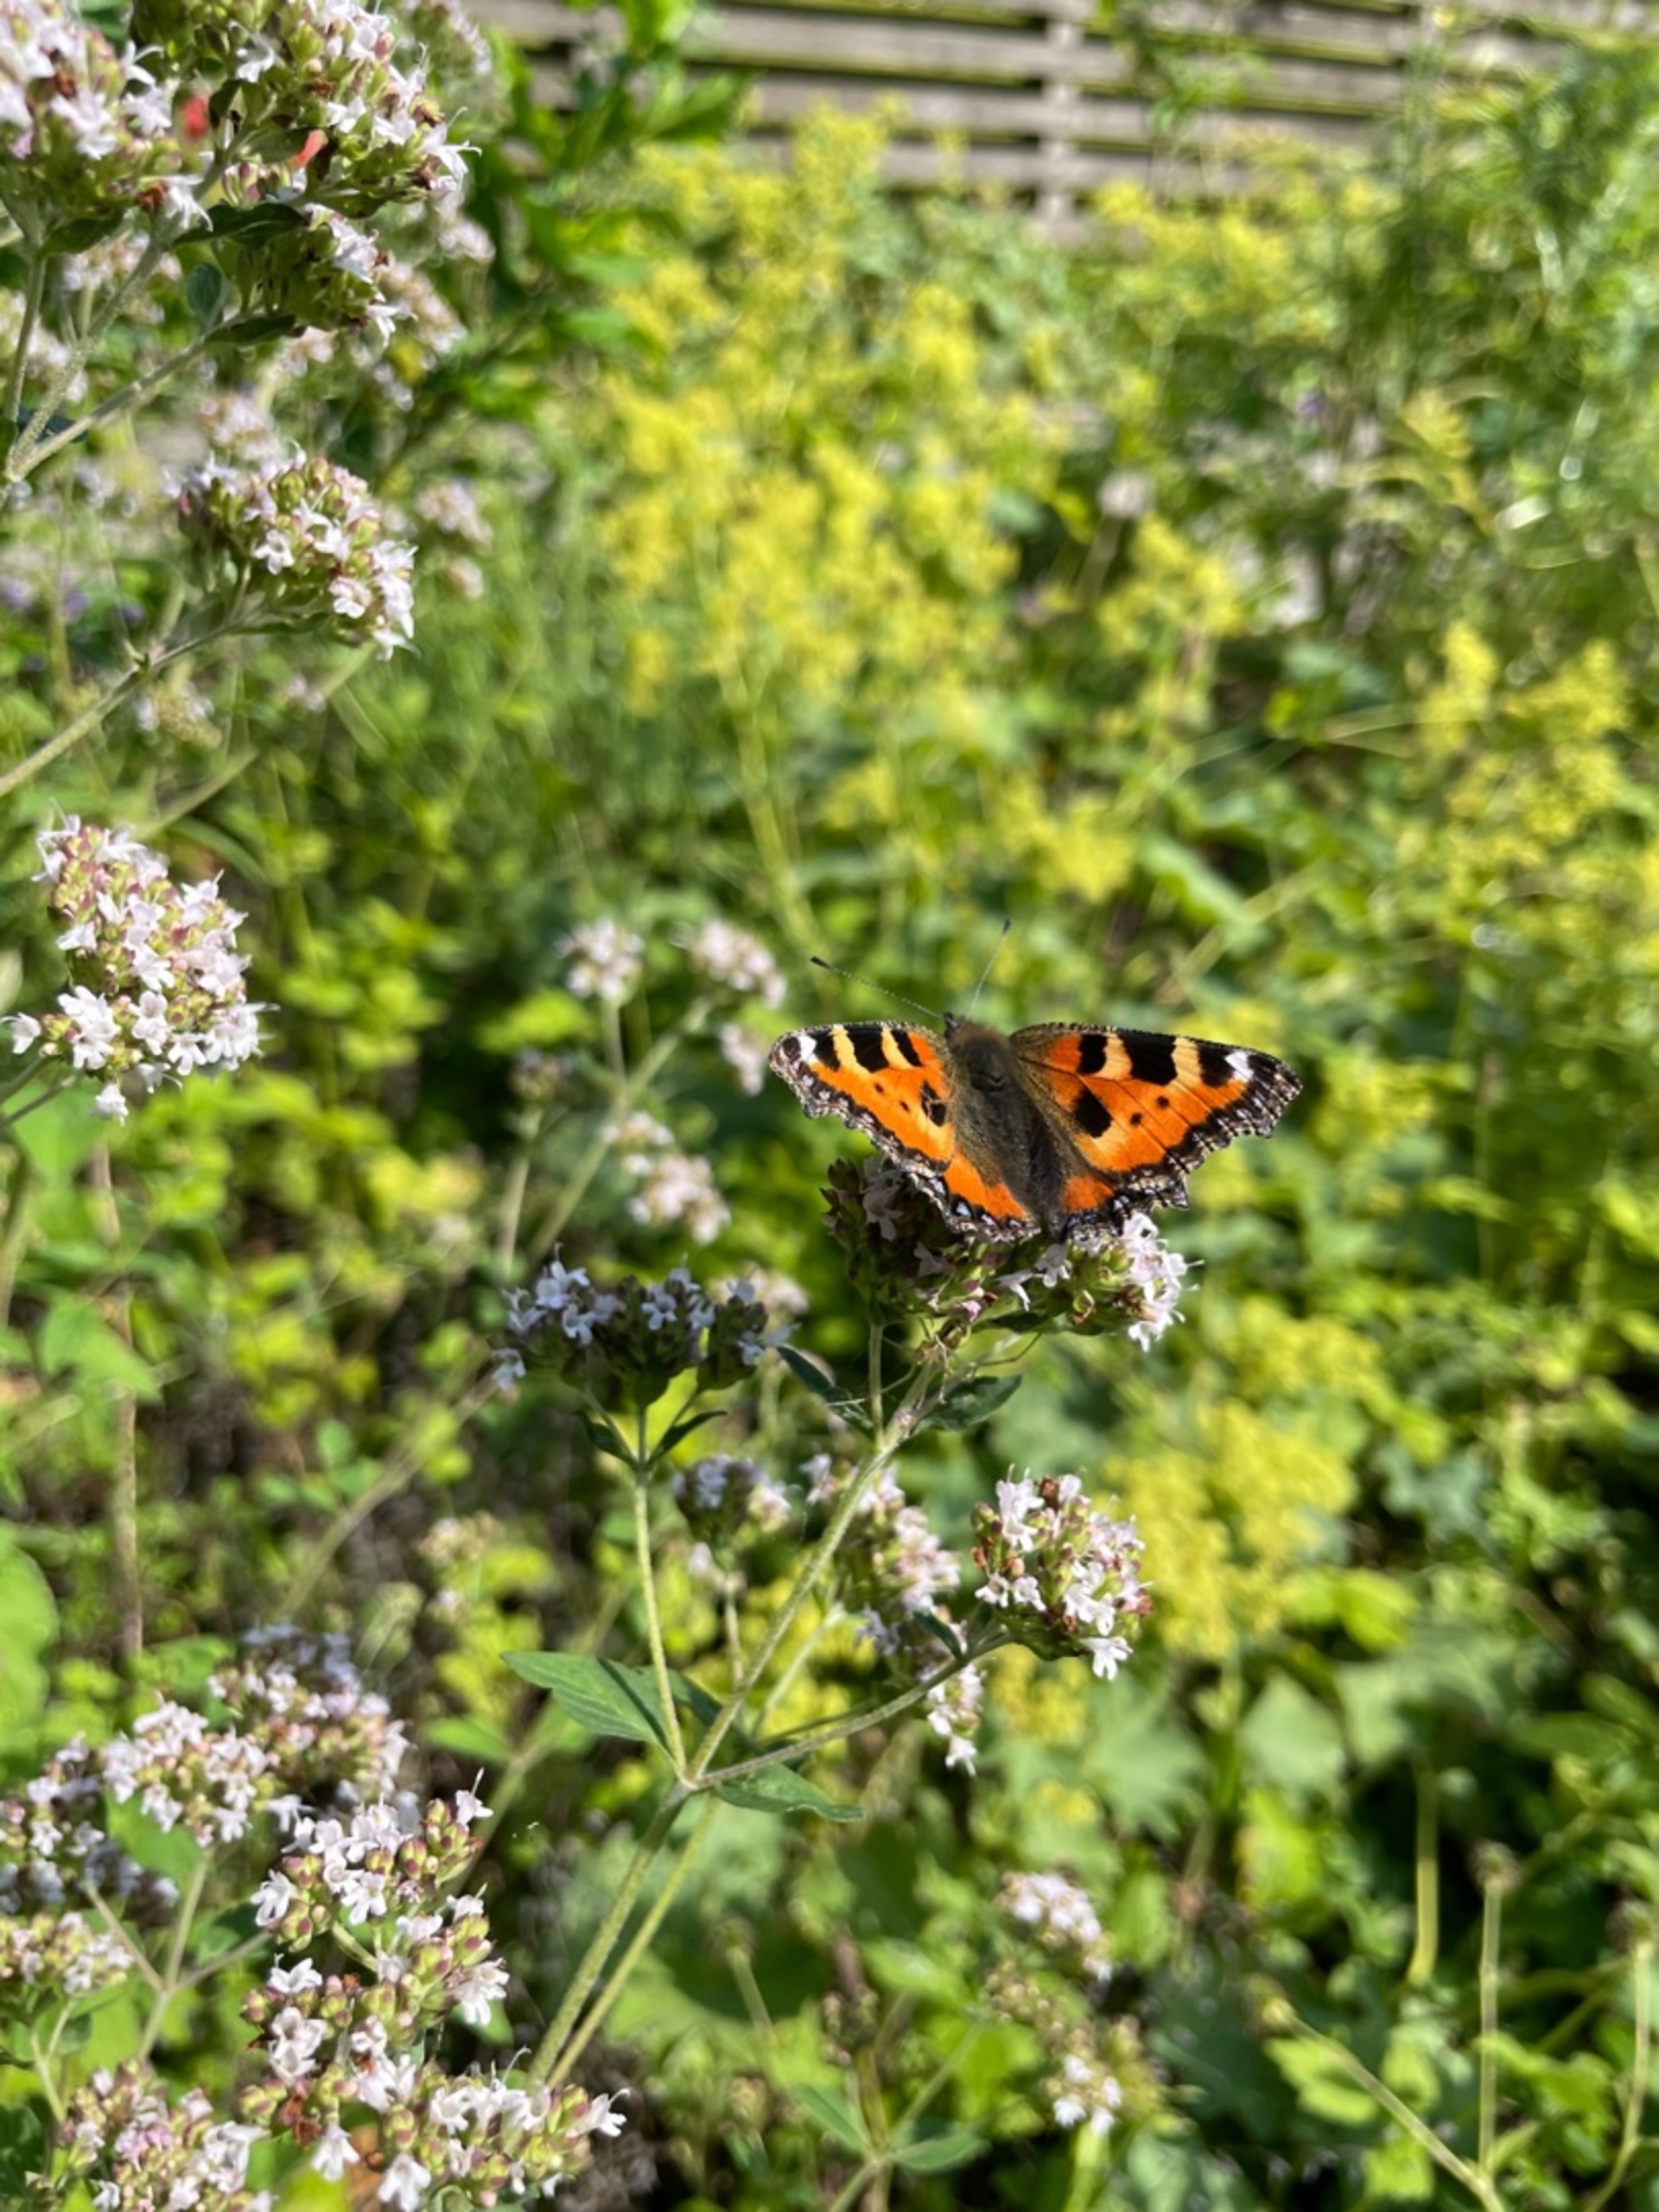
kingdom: Animalia
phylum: Arthropoda
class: Insecta
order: Lepidoptera
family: Nymphalidae
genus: Aglais
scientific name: Aglais urticae
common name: Nældens takvinge
